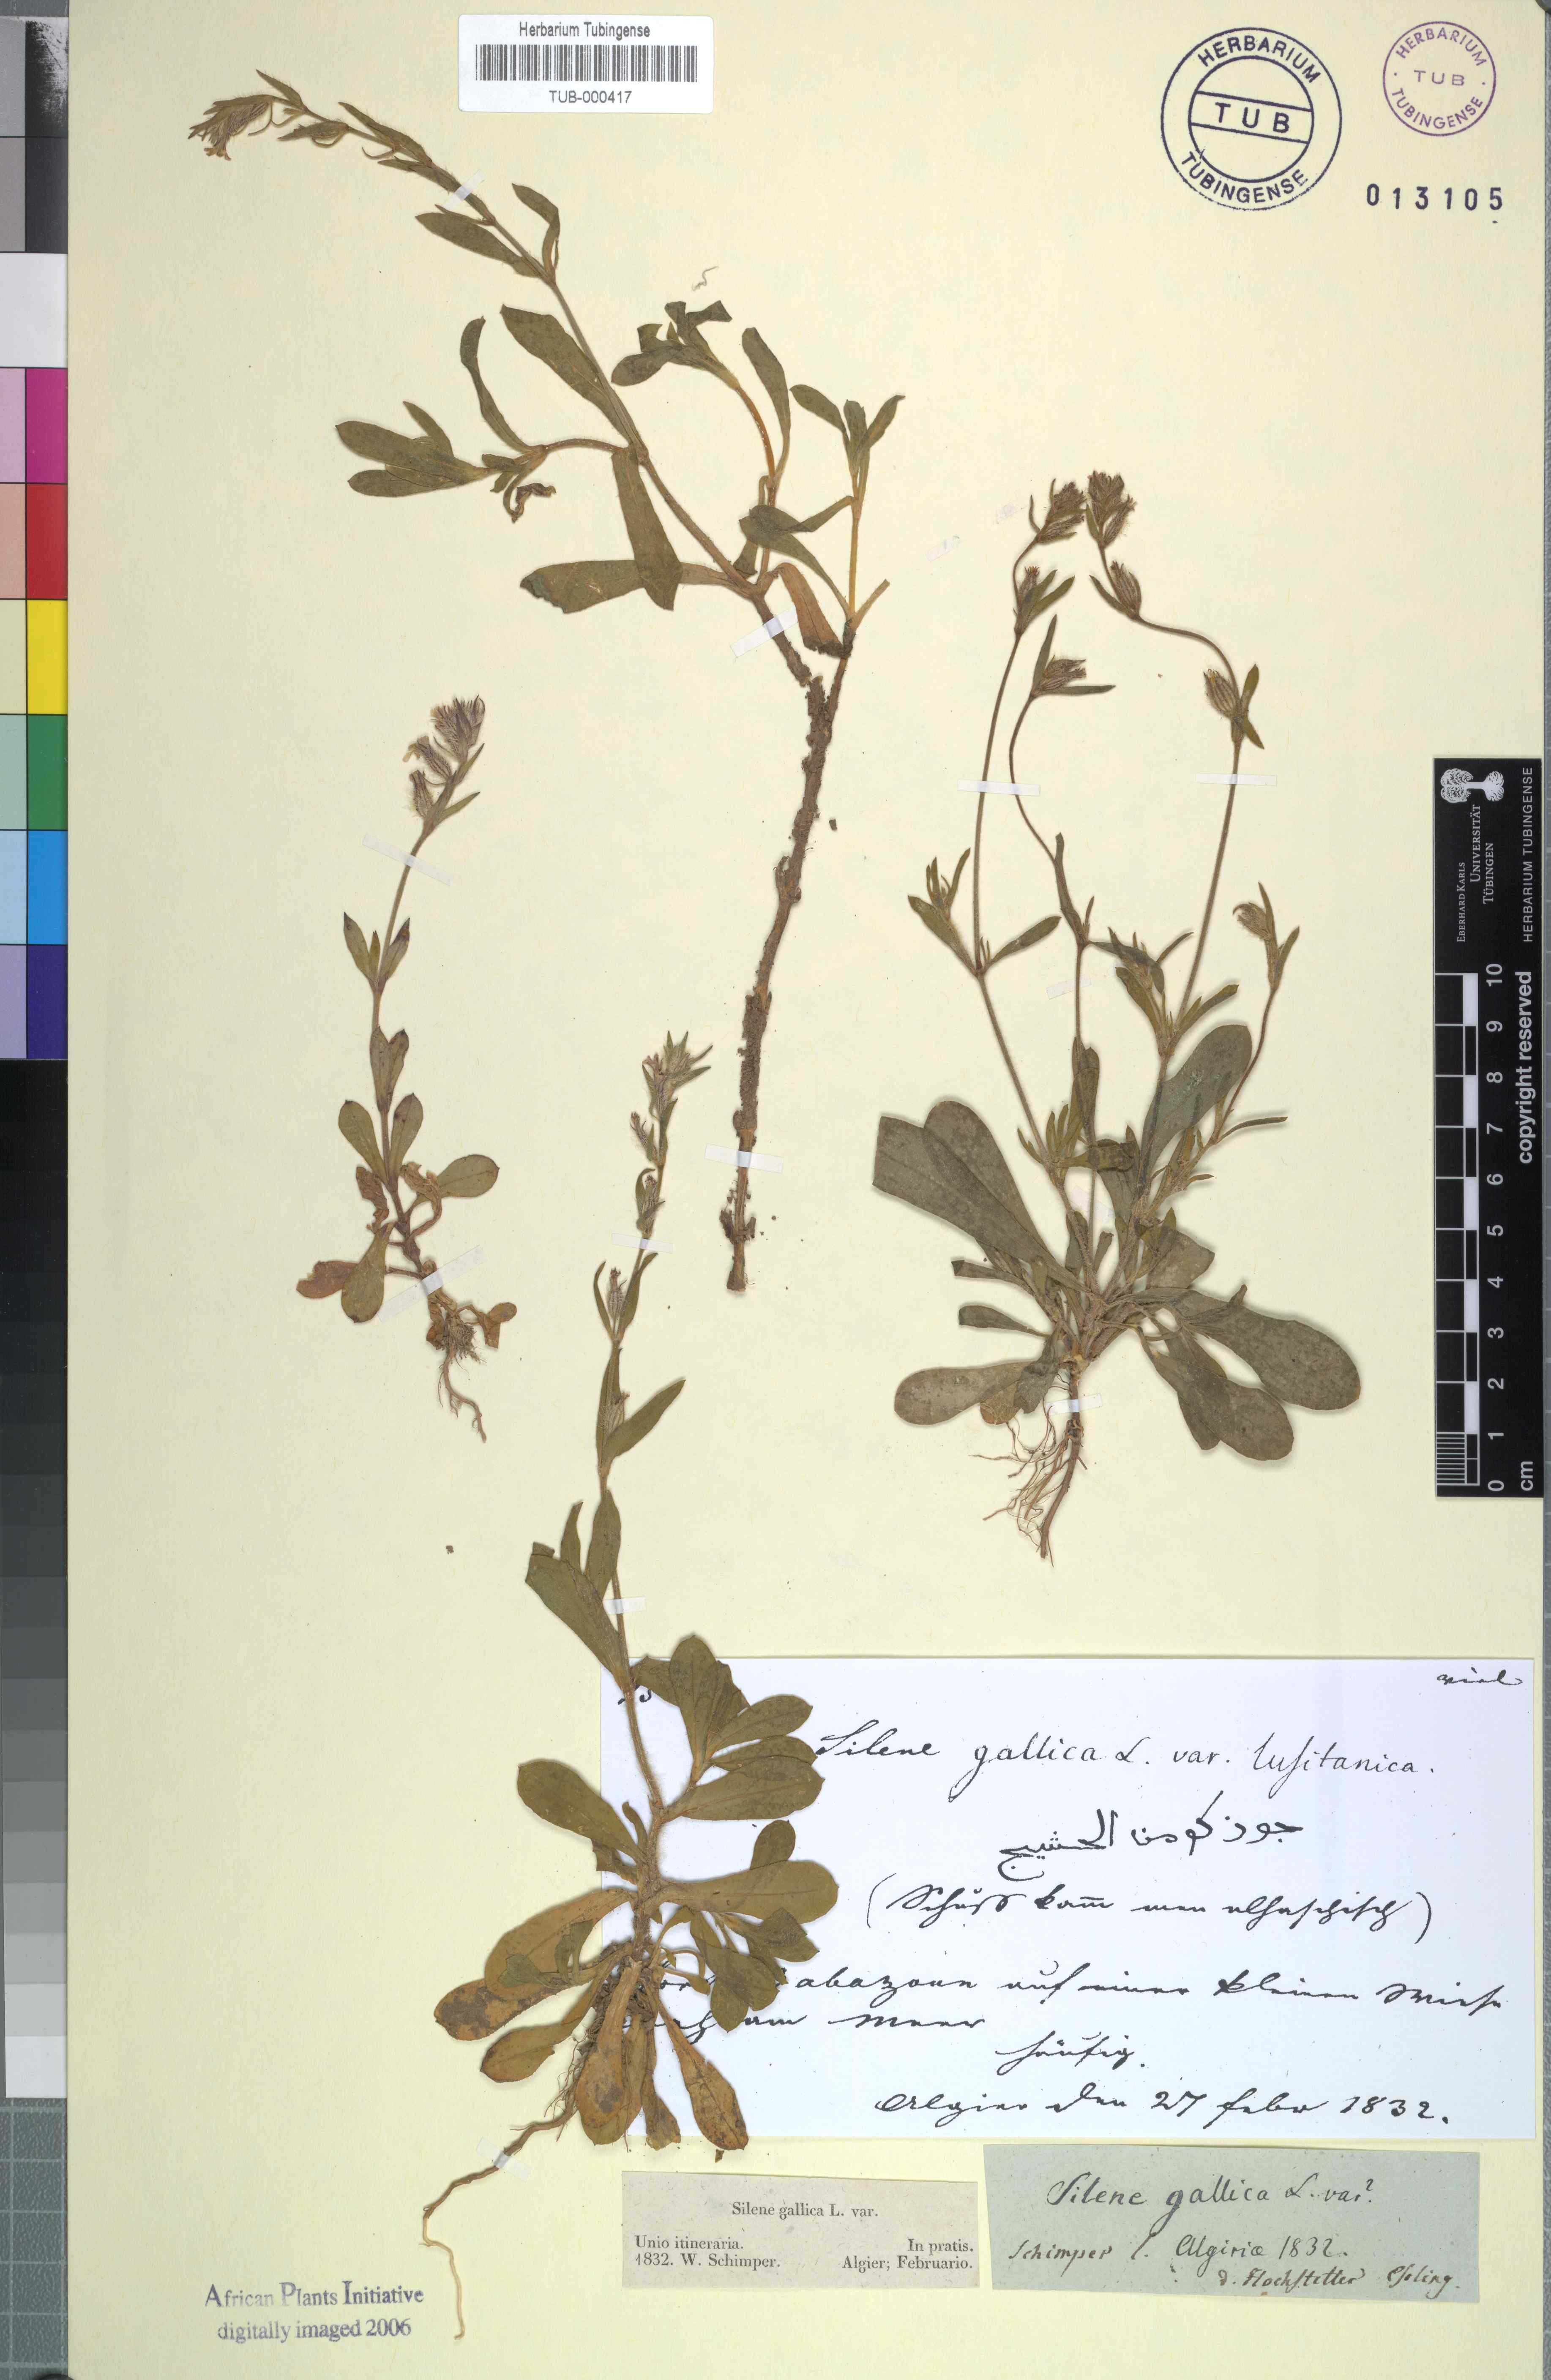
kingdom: Plantae
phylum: Tracheophyta
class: Magnoliopsida
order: Caryophyllales
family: Caryophyllaceae
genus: Silene
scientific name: Silene gallica
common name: Small-flowered catchfly
